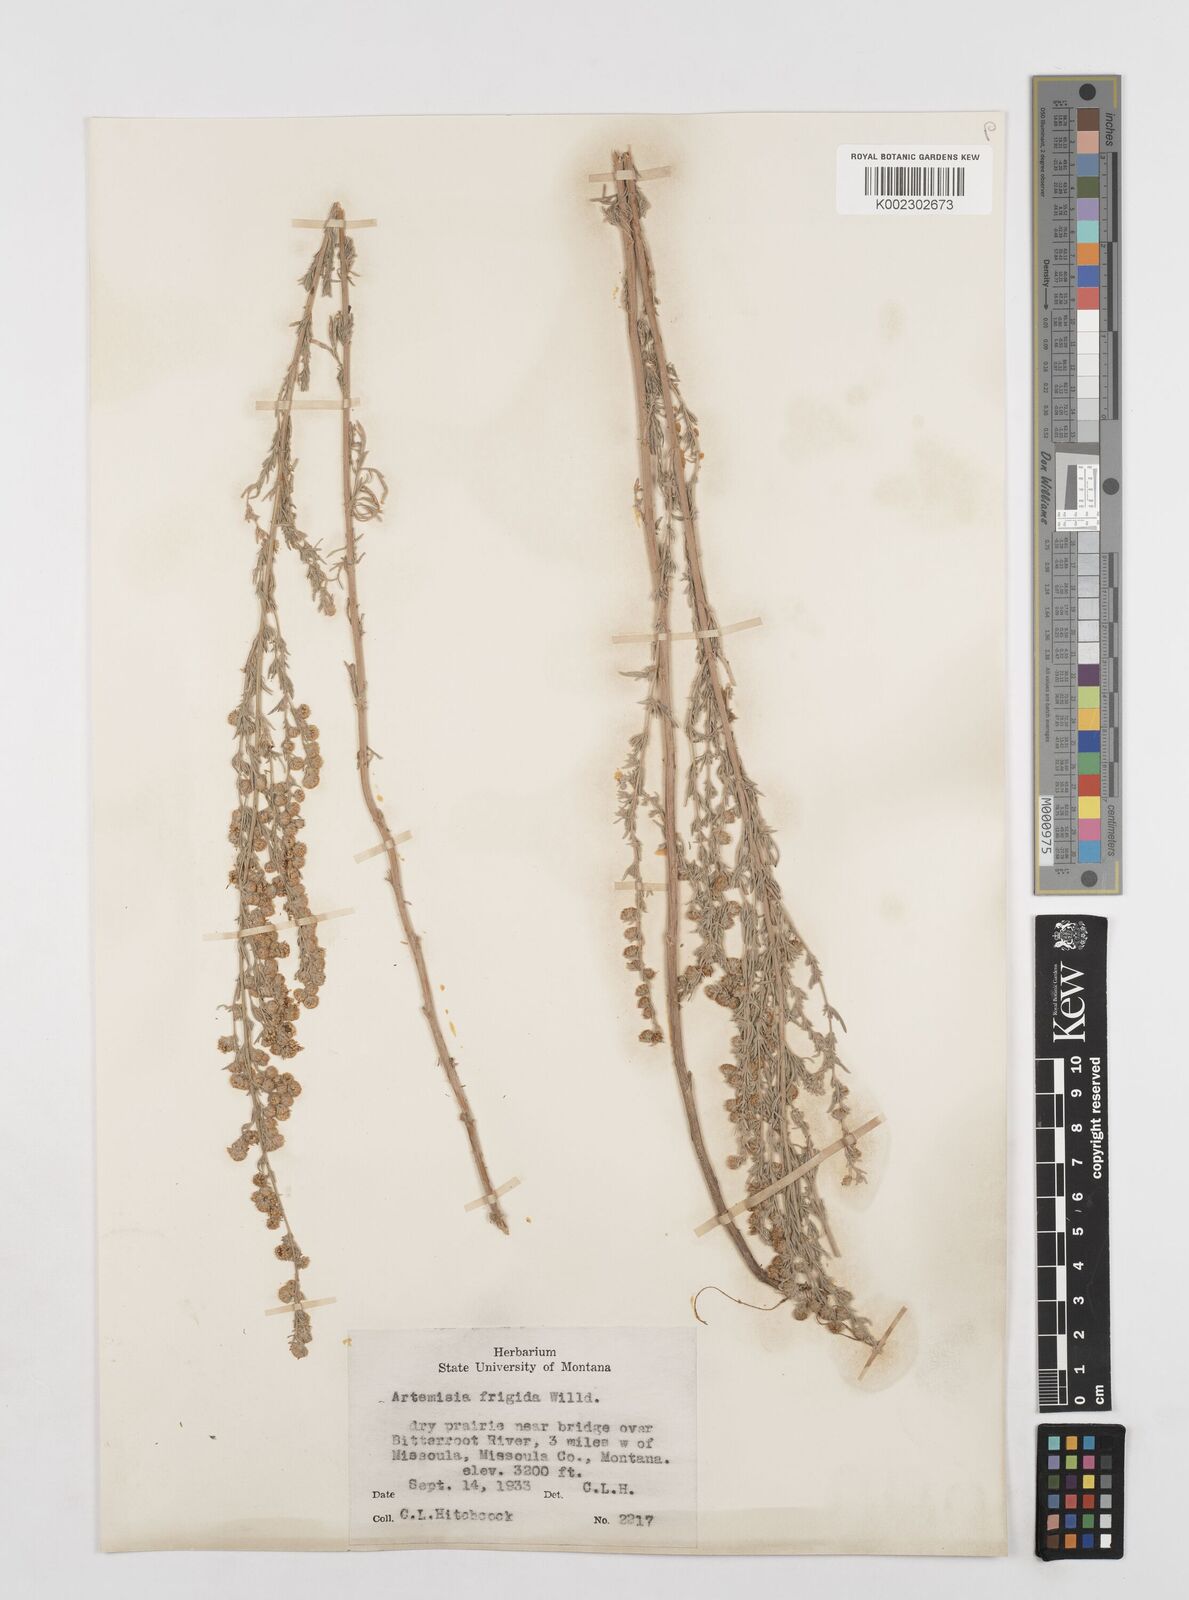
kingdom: Plantae
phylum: Tracheophyta
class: Magnoliopsida
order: Asterales
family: Asteraceae
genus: Artemisia
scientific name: Artemisia frigida
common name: Prairie sagewort
